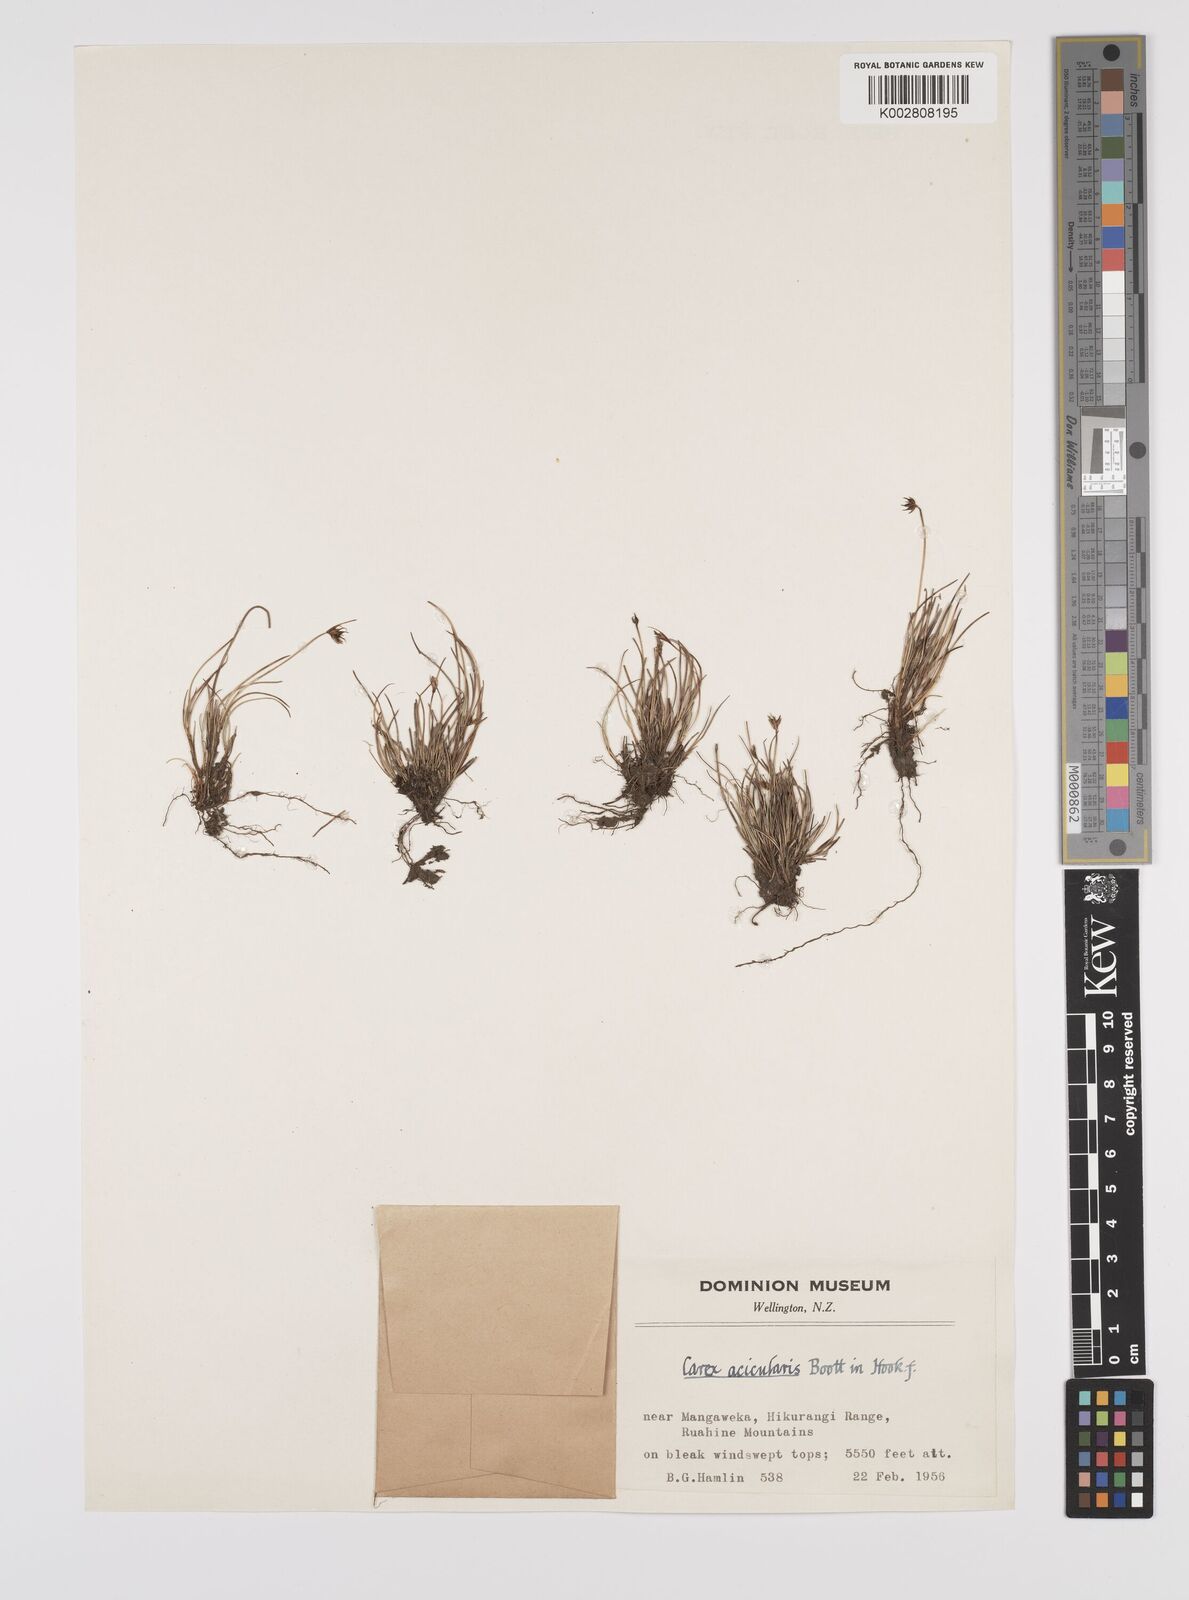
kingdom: Plantae
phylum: Tracheophyta
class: Liliopsida
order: Poales
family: Cyperaceae
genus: Carex
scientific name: Carex acicularis
